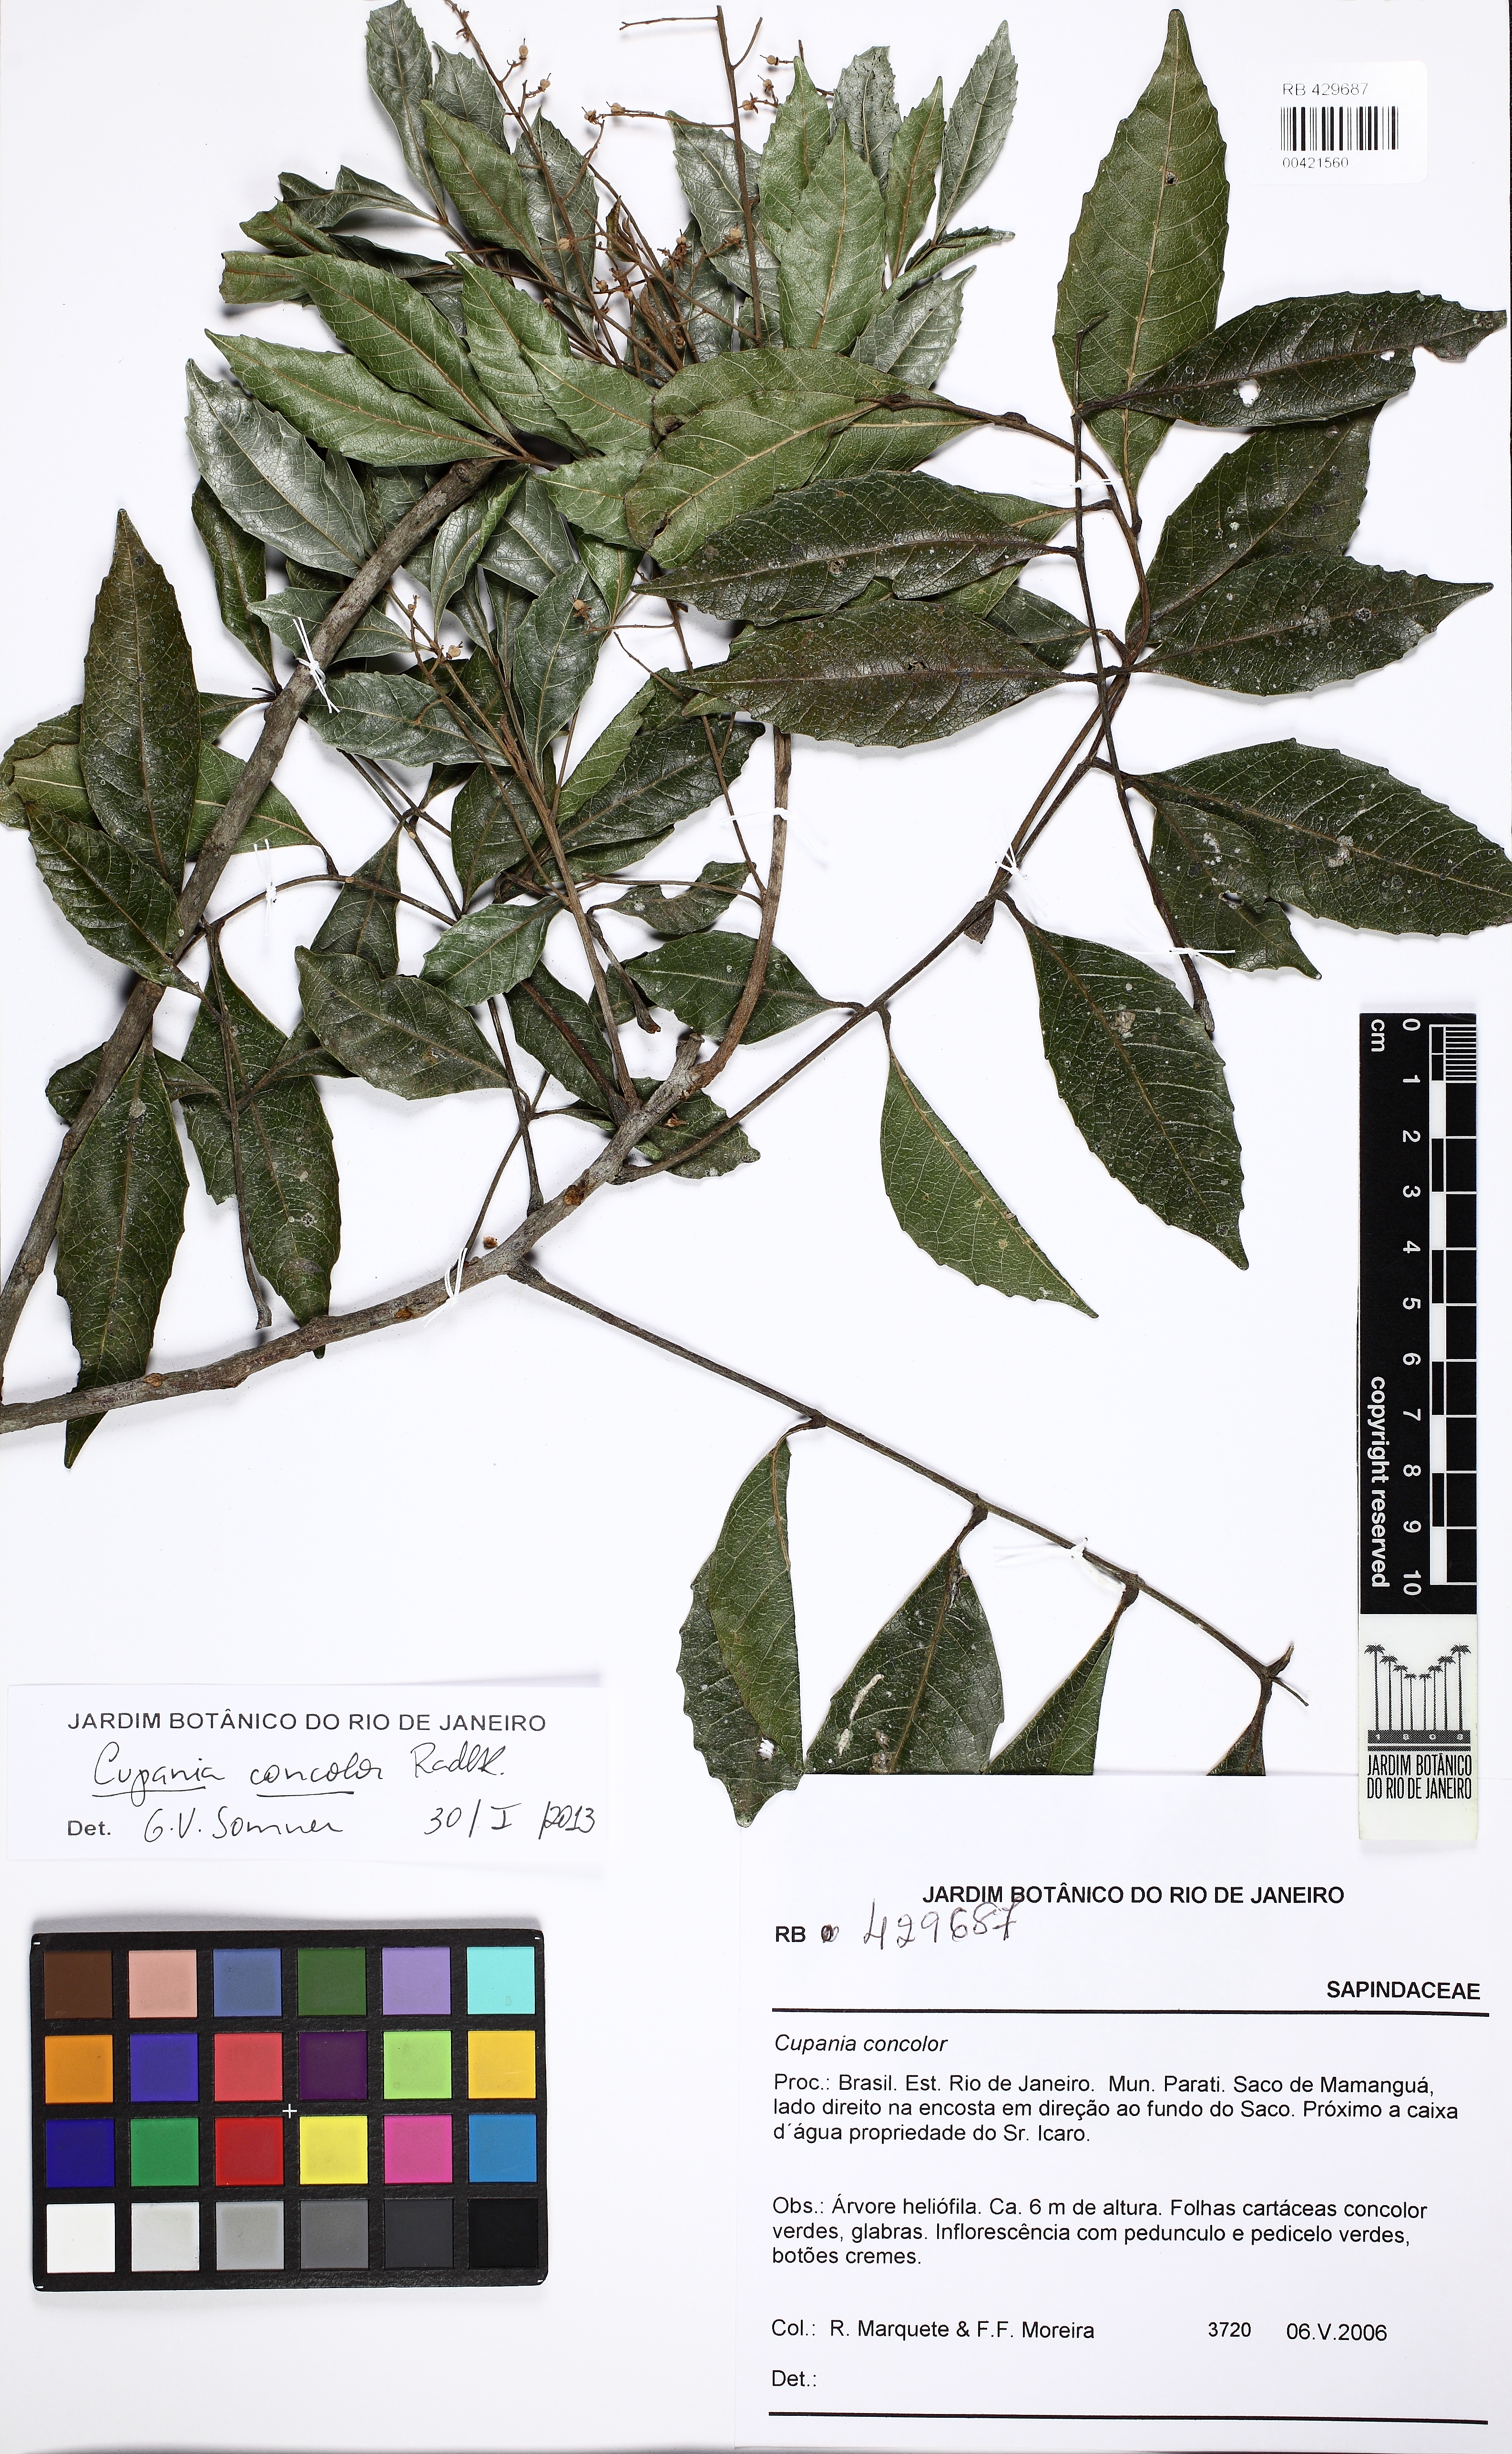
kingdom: Plantae
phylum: Tracheophyta
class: Magnoliopsida
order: Sapindales
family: Sapindaceae
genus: Cupania
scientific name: Cupania concolor
